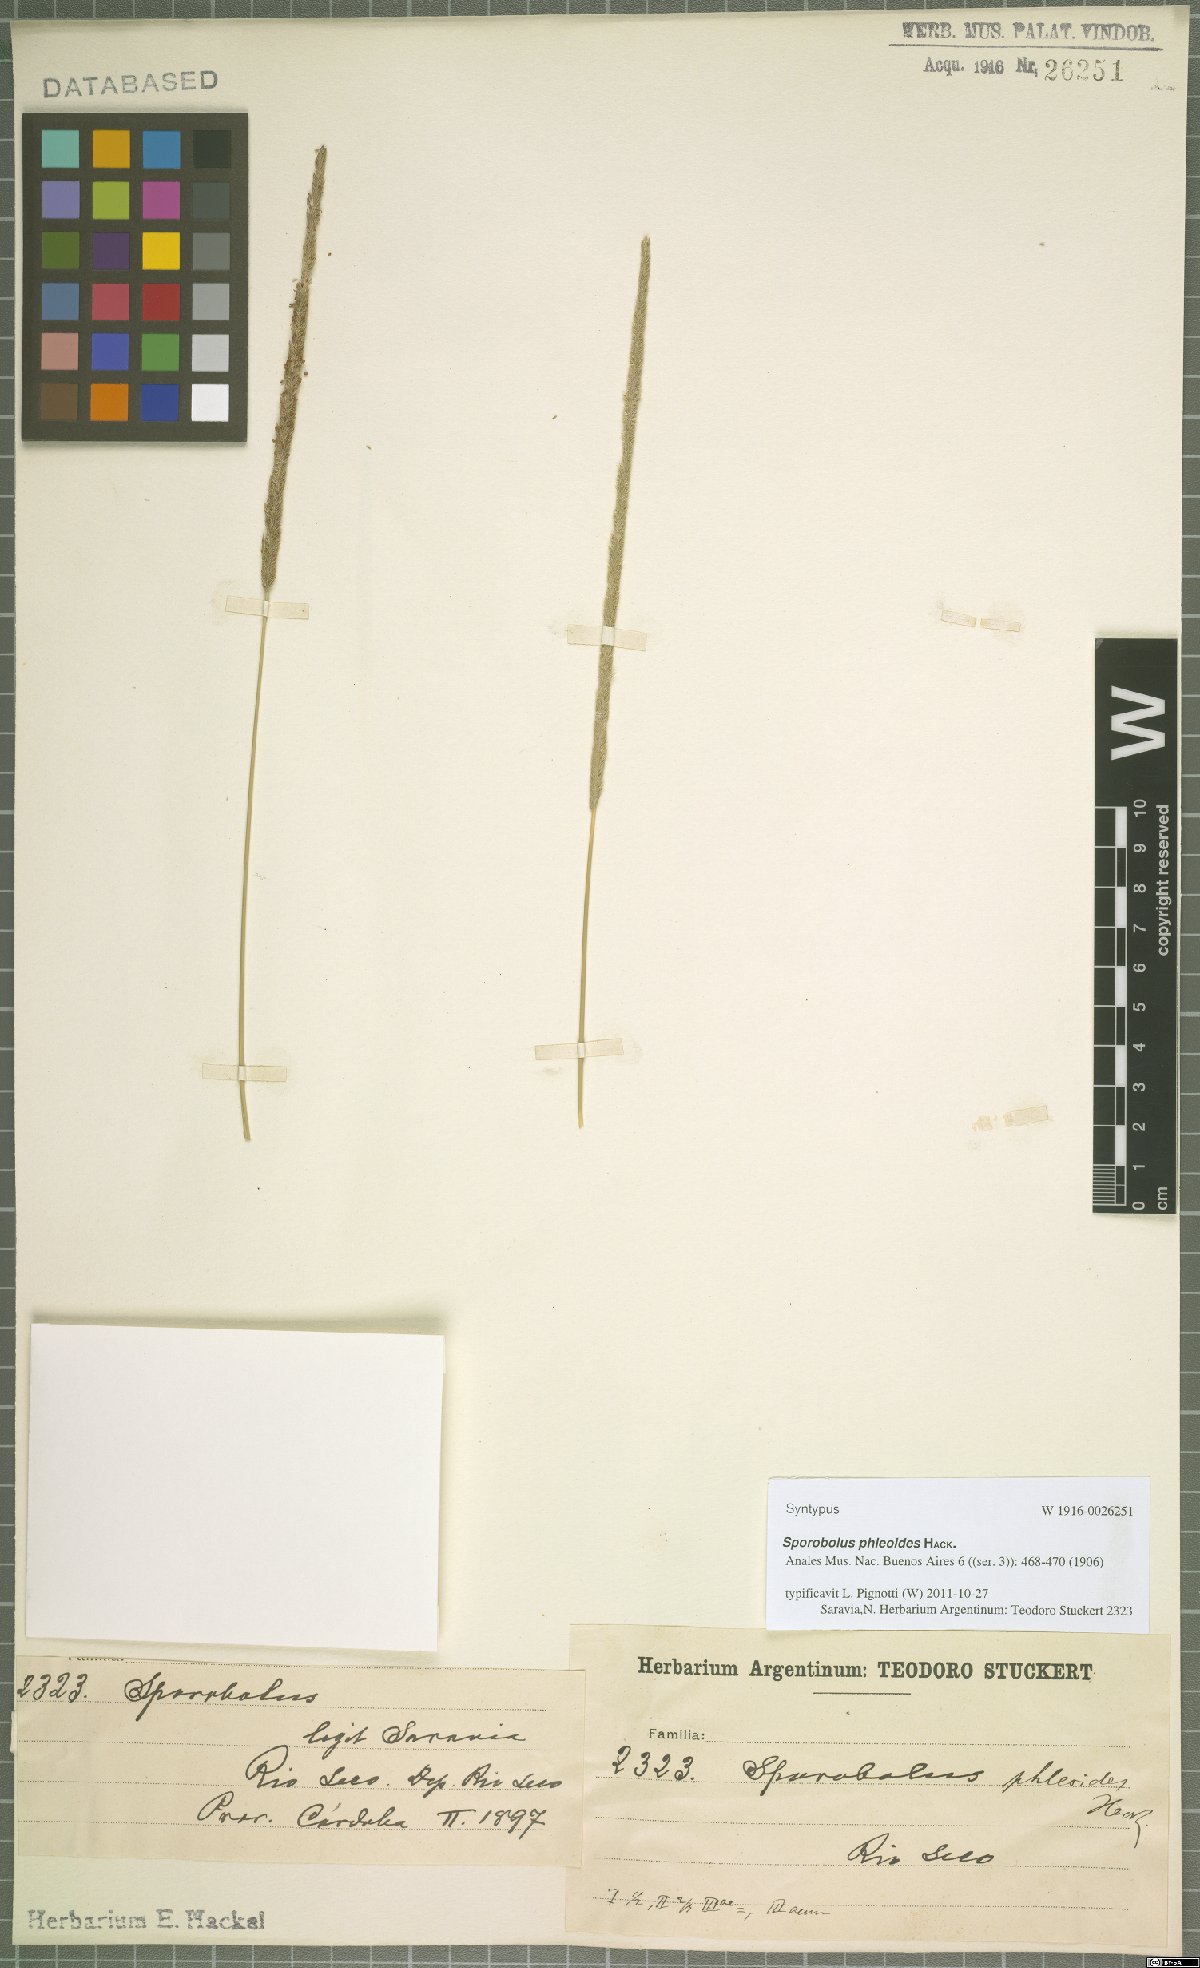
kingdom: Plantae
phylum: Tracheophyta
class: Liliopsida
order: Poales
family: Poaceae
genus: Sporobolus
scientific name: Sporobolus phleoides
